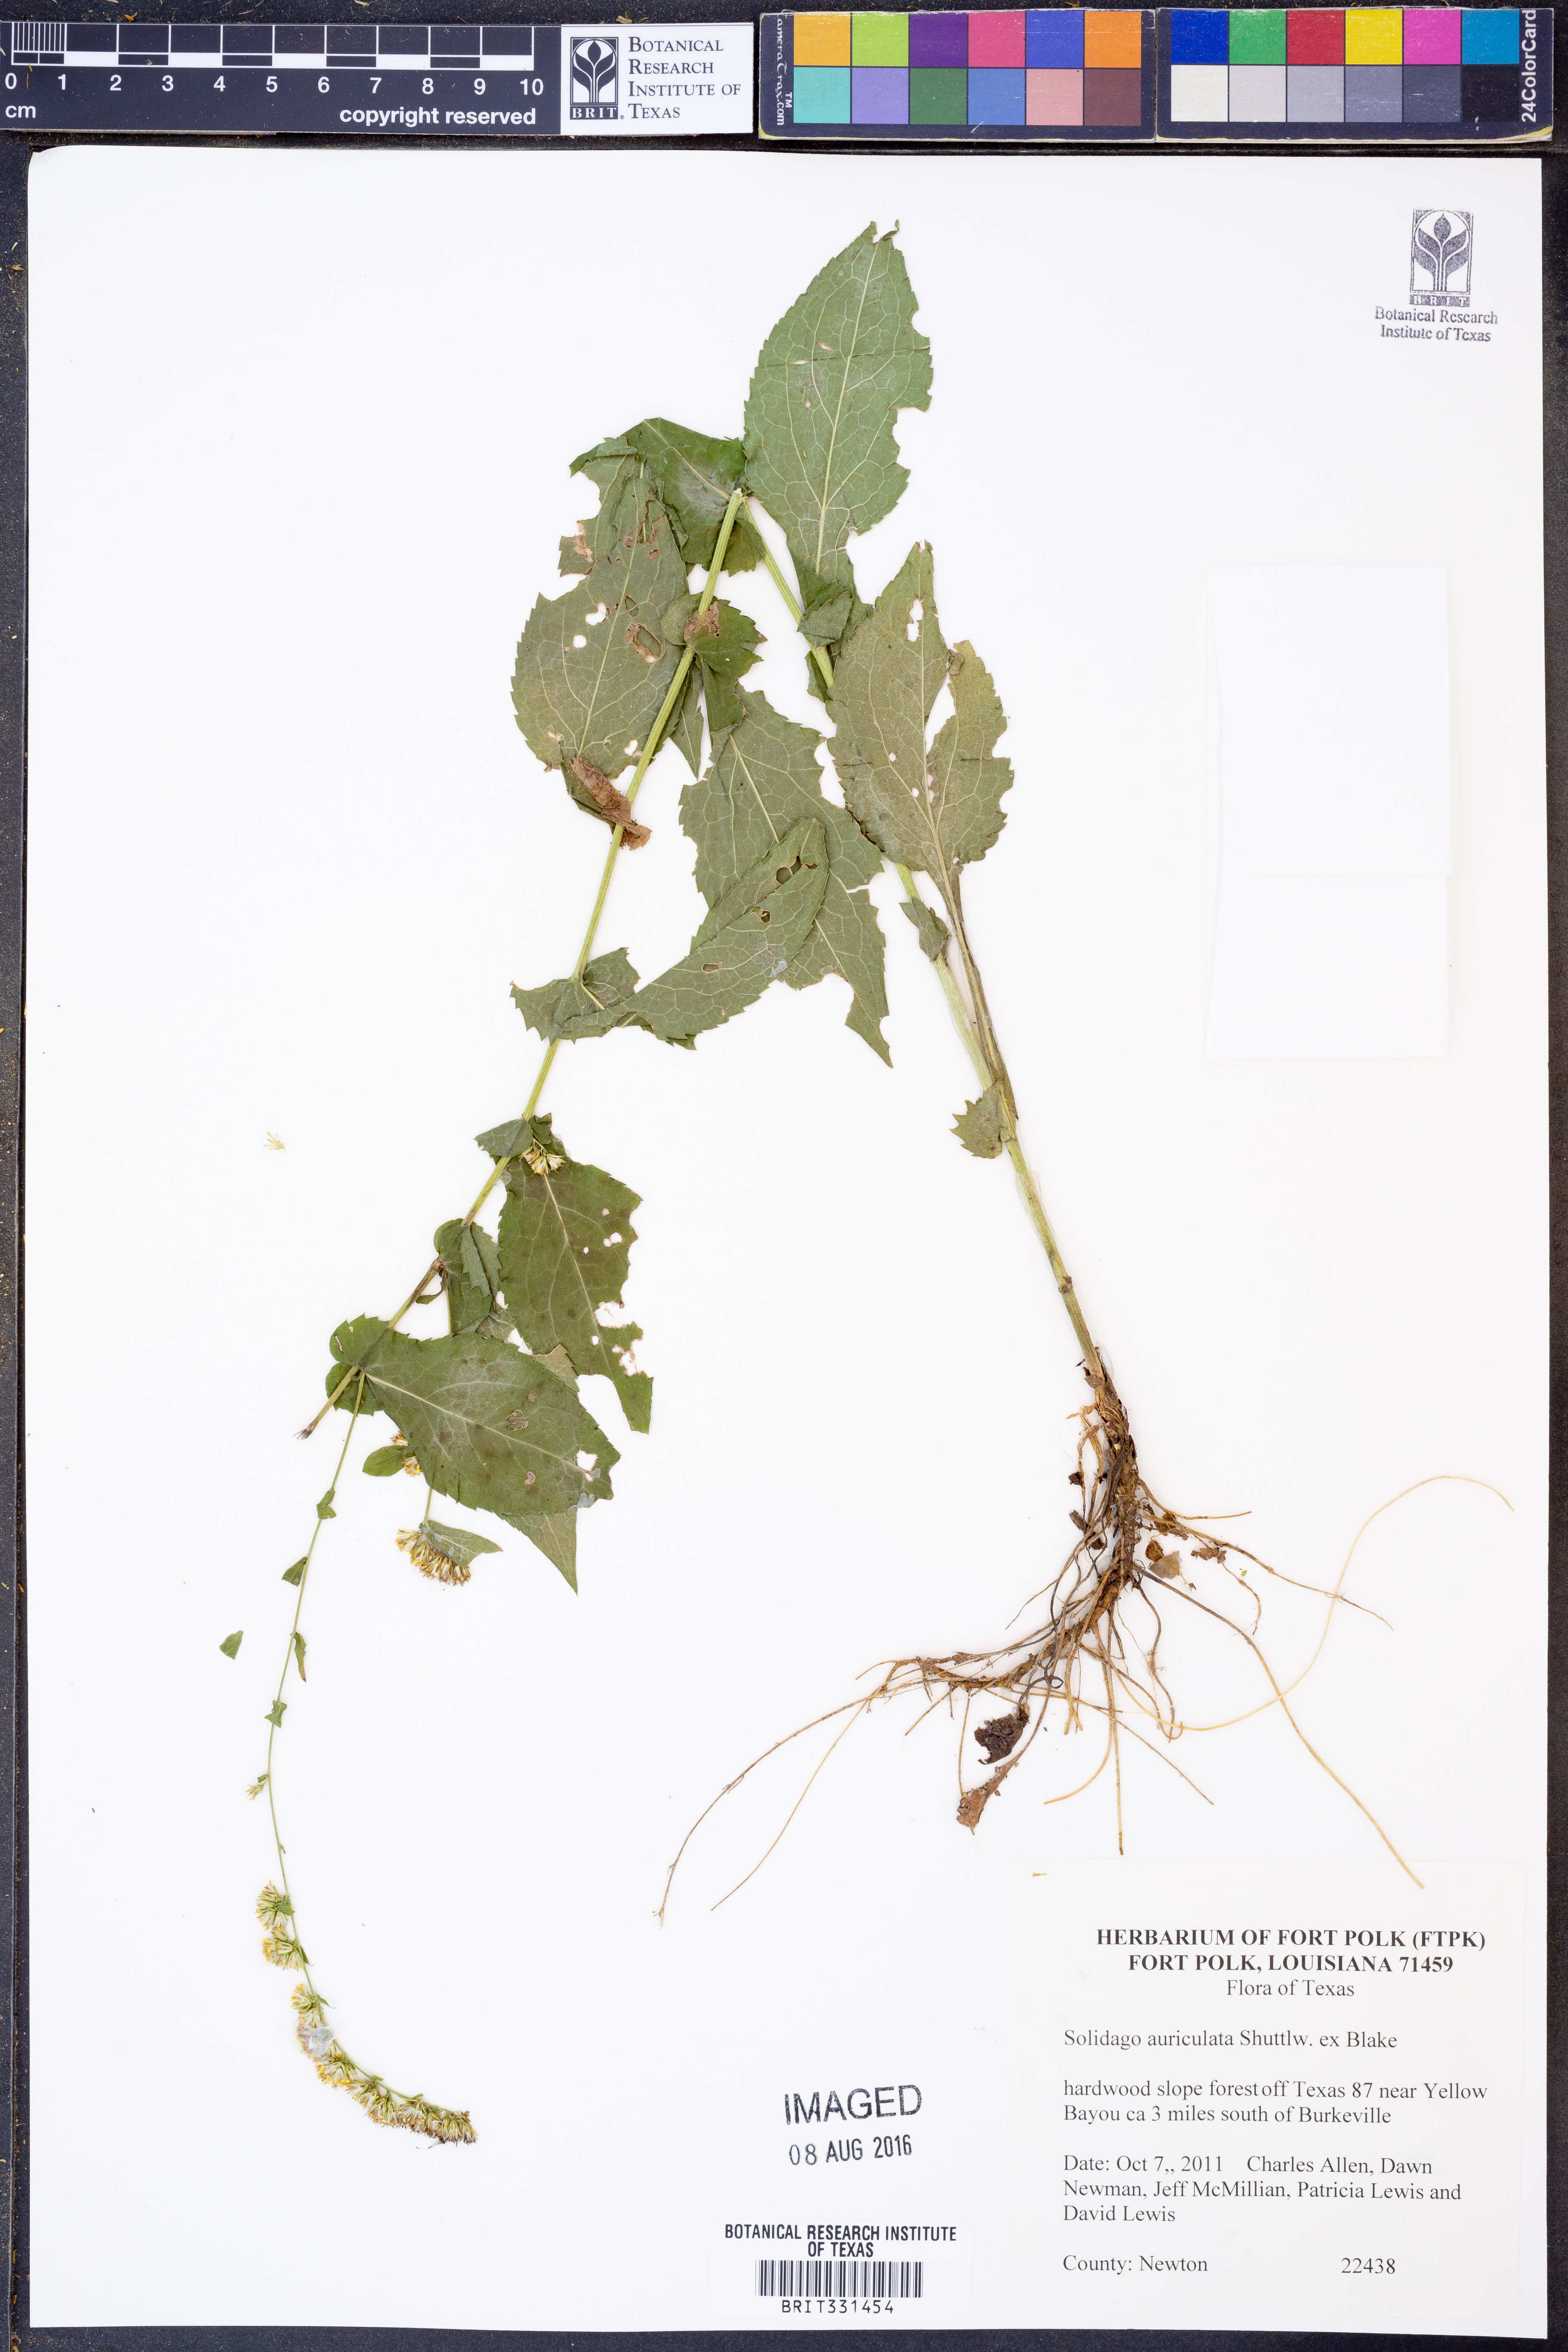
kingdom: Plantae
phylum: Tracheophyta
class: Magnoliopsida
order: Asterales
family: Asteraceae
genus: Solidago
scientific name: Solidago auriculata
